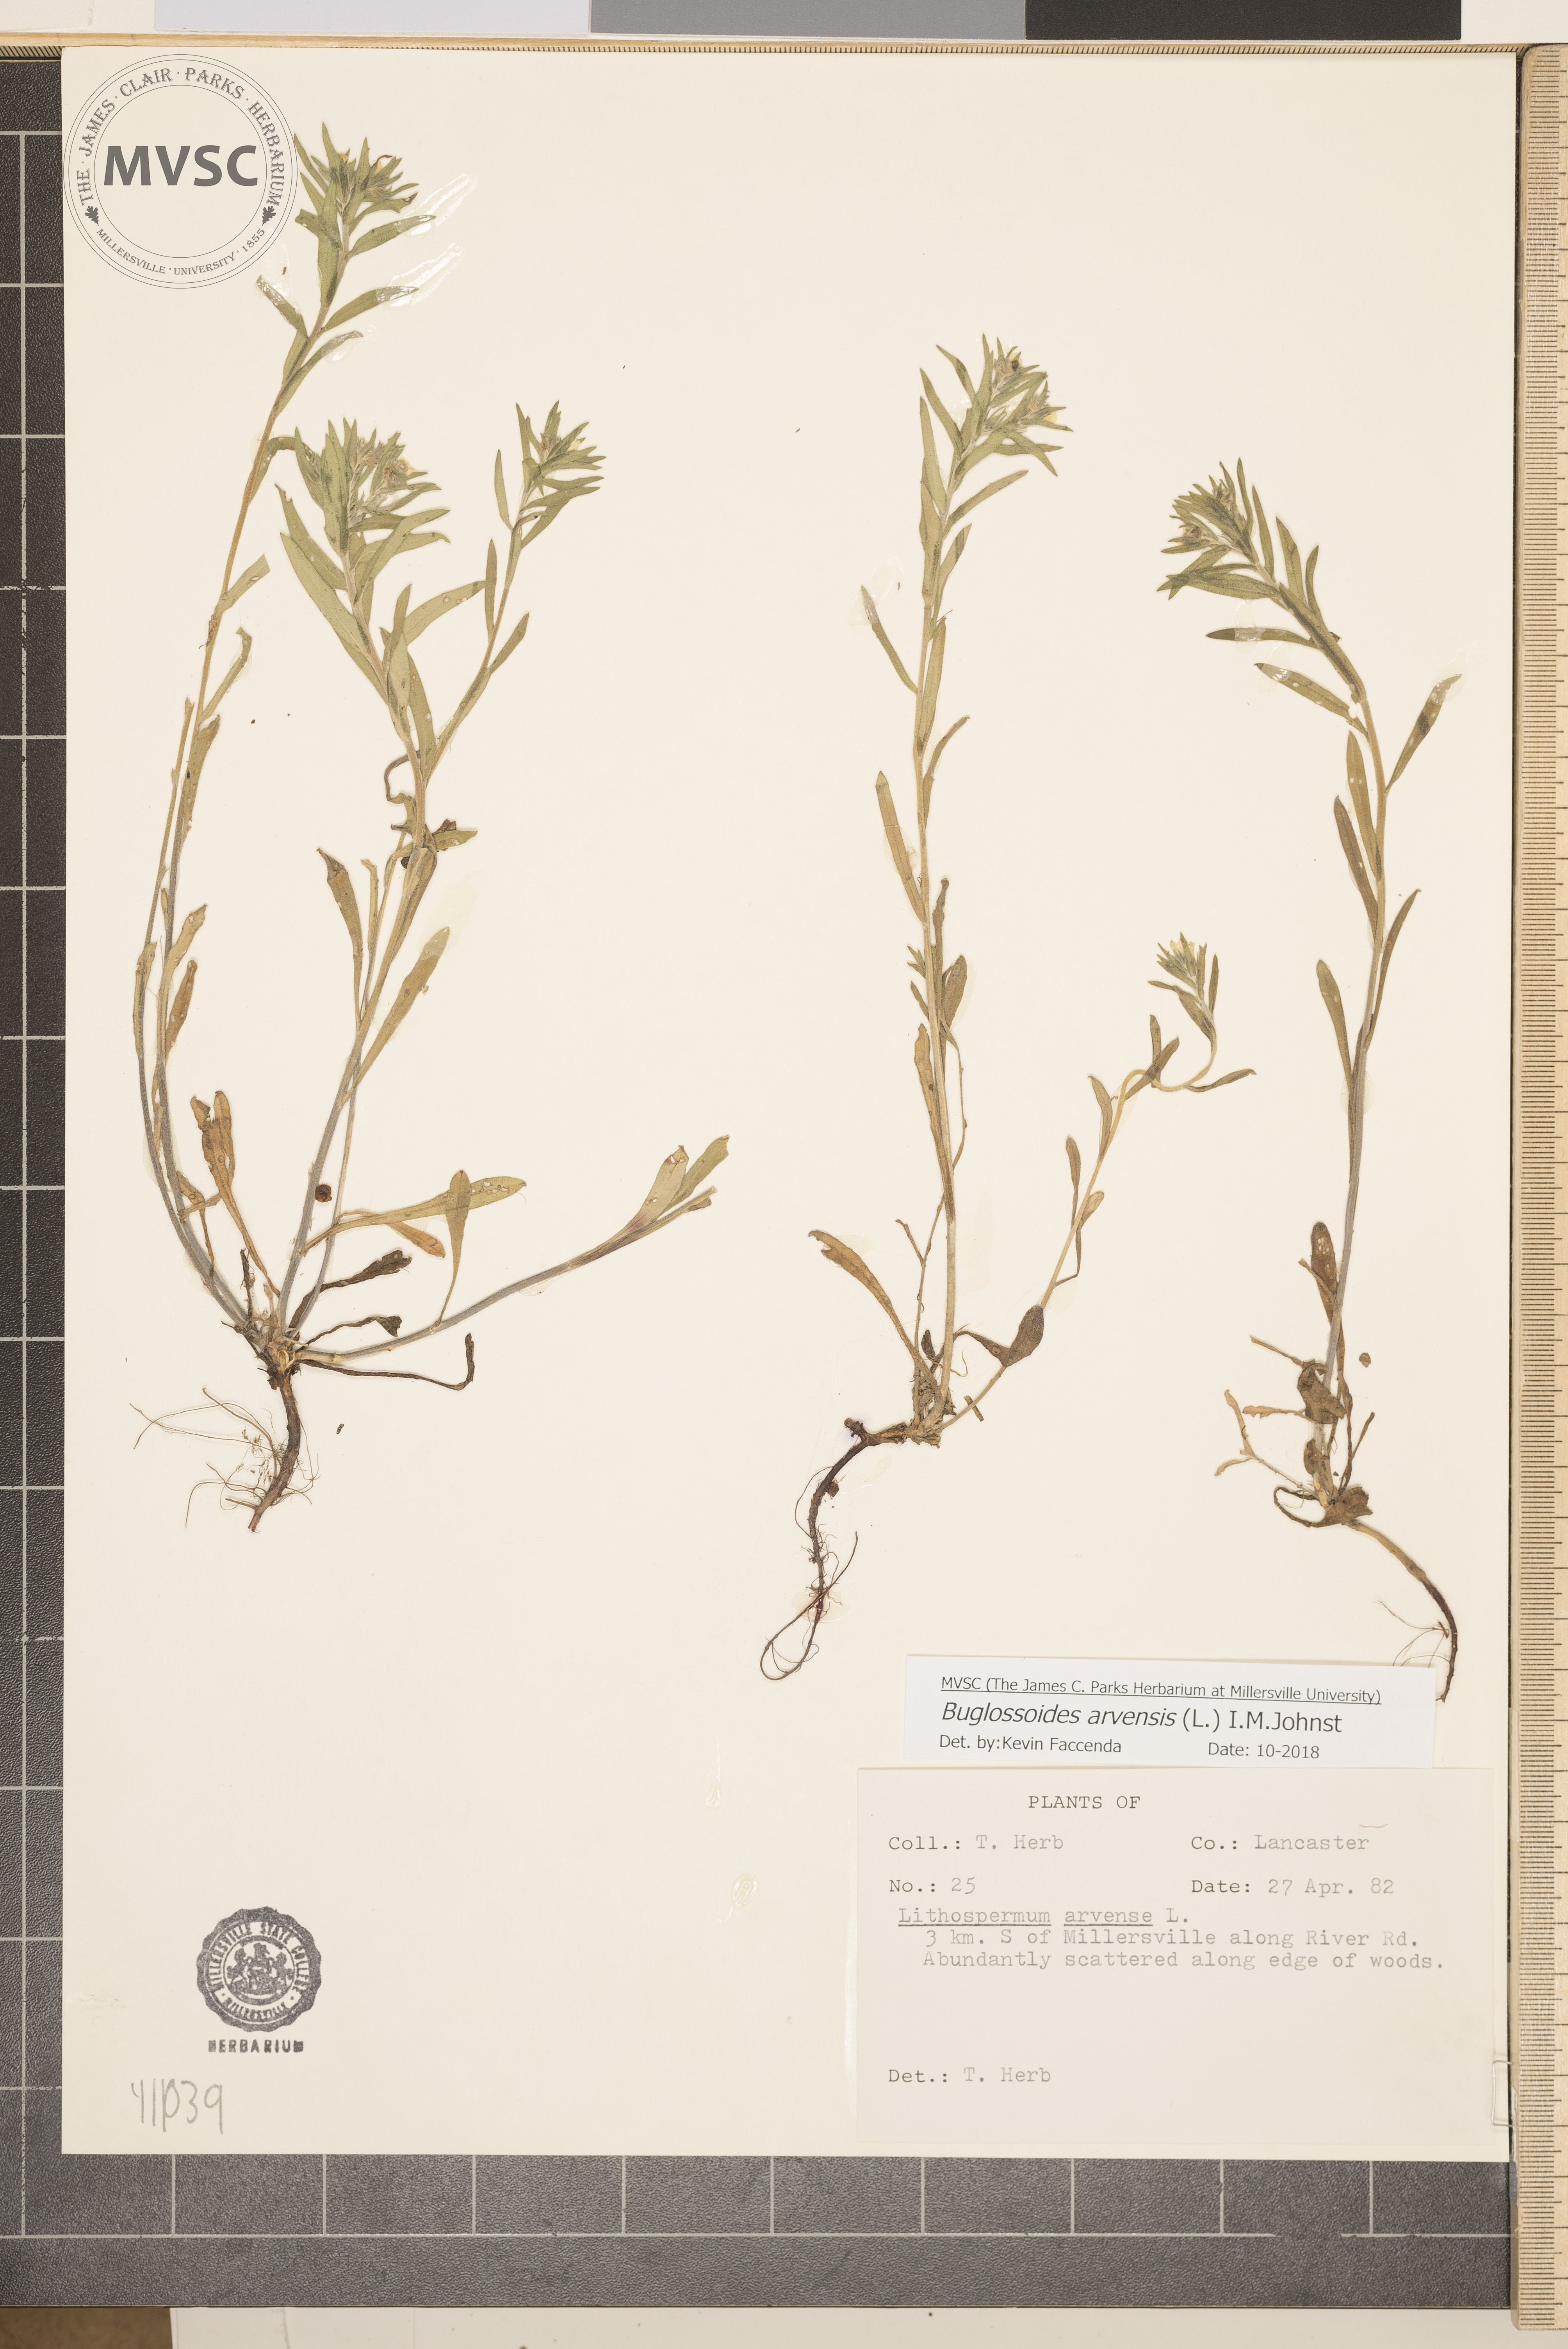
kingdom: Plantae
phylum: Tracheophyta
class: Magnoliopsida
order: Boraginales
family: Boraginaceae
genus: Buglossoides
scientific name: Buglossoides arvensis
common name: Corn gromwell
